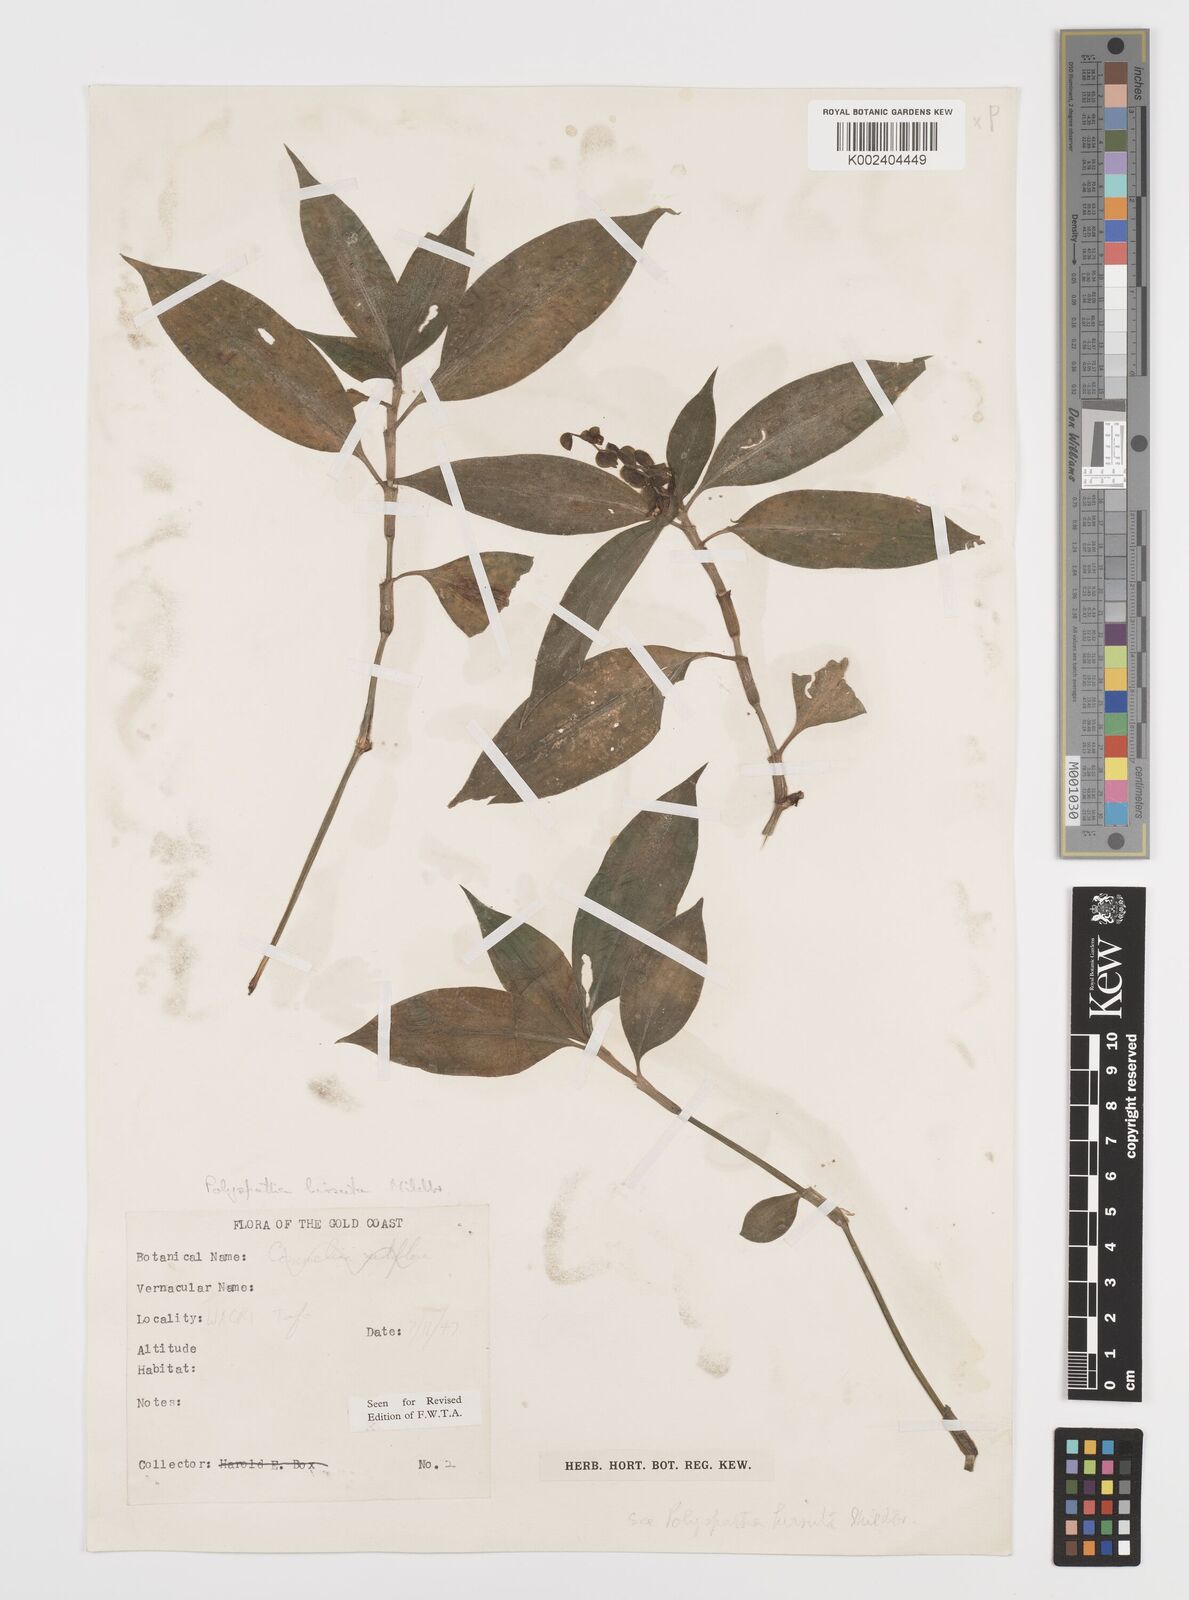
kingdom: Plantae
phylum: Tracheophyta
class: Liliopsida
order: Commelinales
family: Commelinaceae
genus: Polyspatha
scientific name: Polyspatha hirsuta
